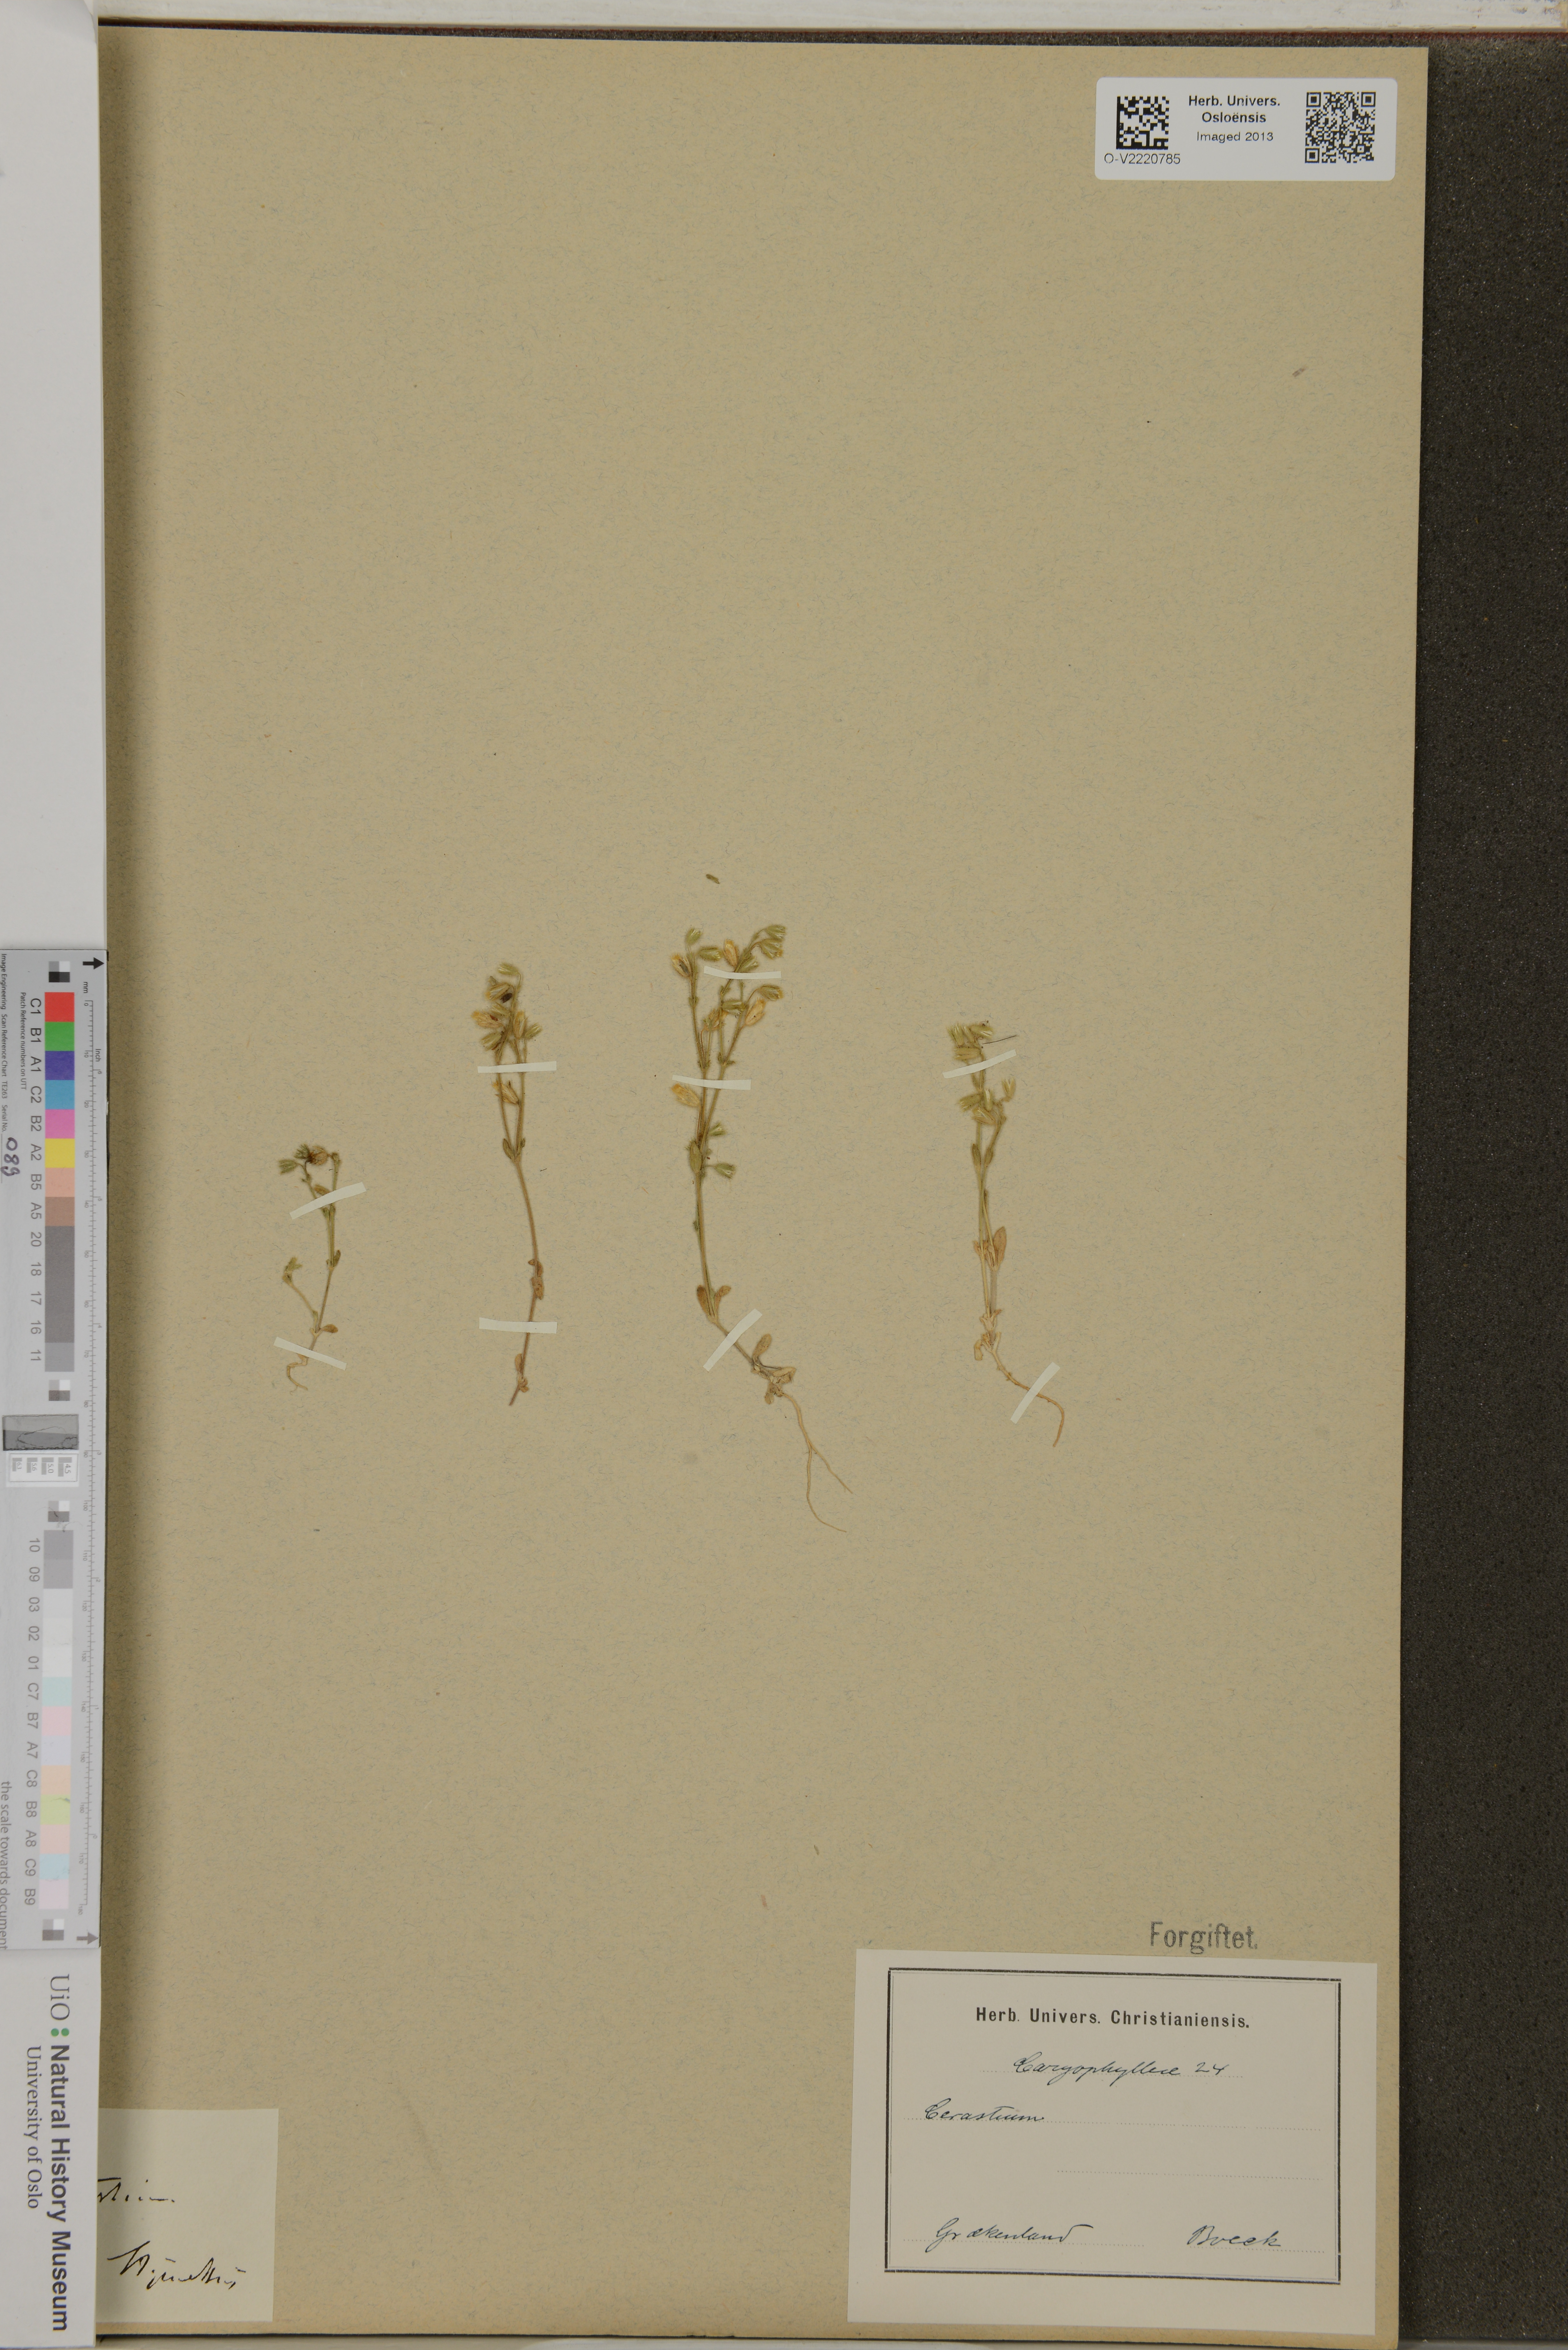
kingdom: Plantae
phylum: Tracheophyta
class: Magnoliopsida
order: Caryophyllales
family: Caryophyllaceae
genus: Cerastium
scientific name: Cerastium
